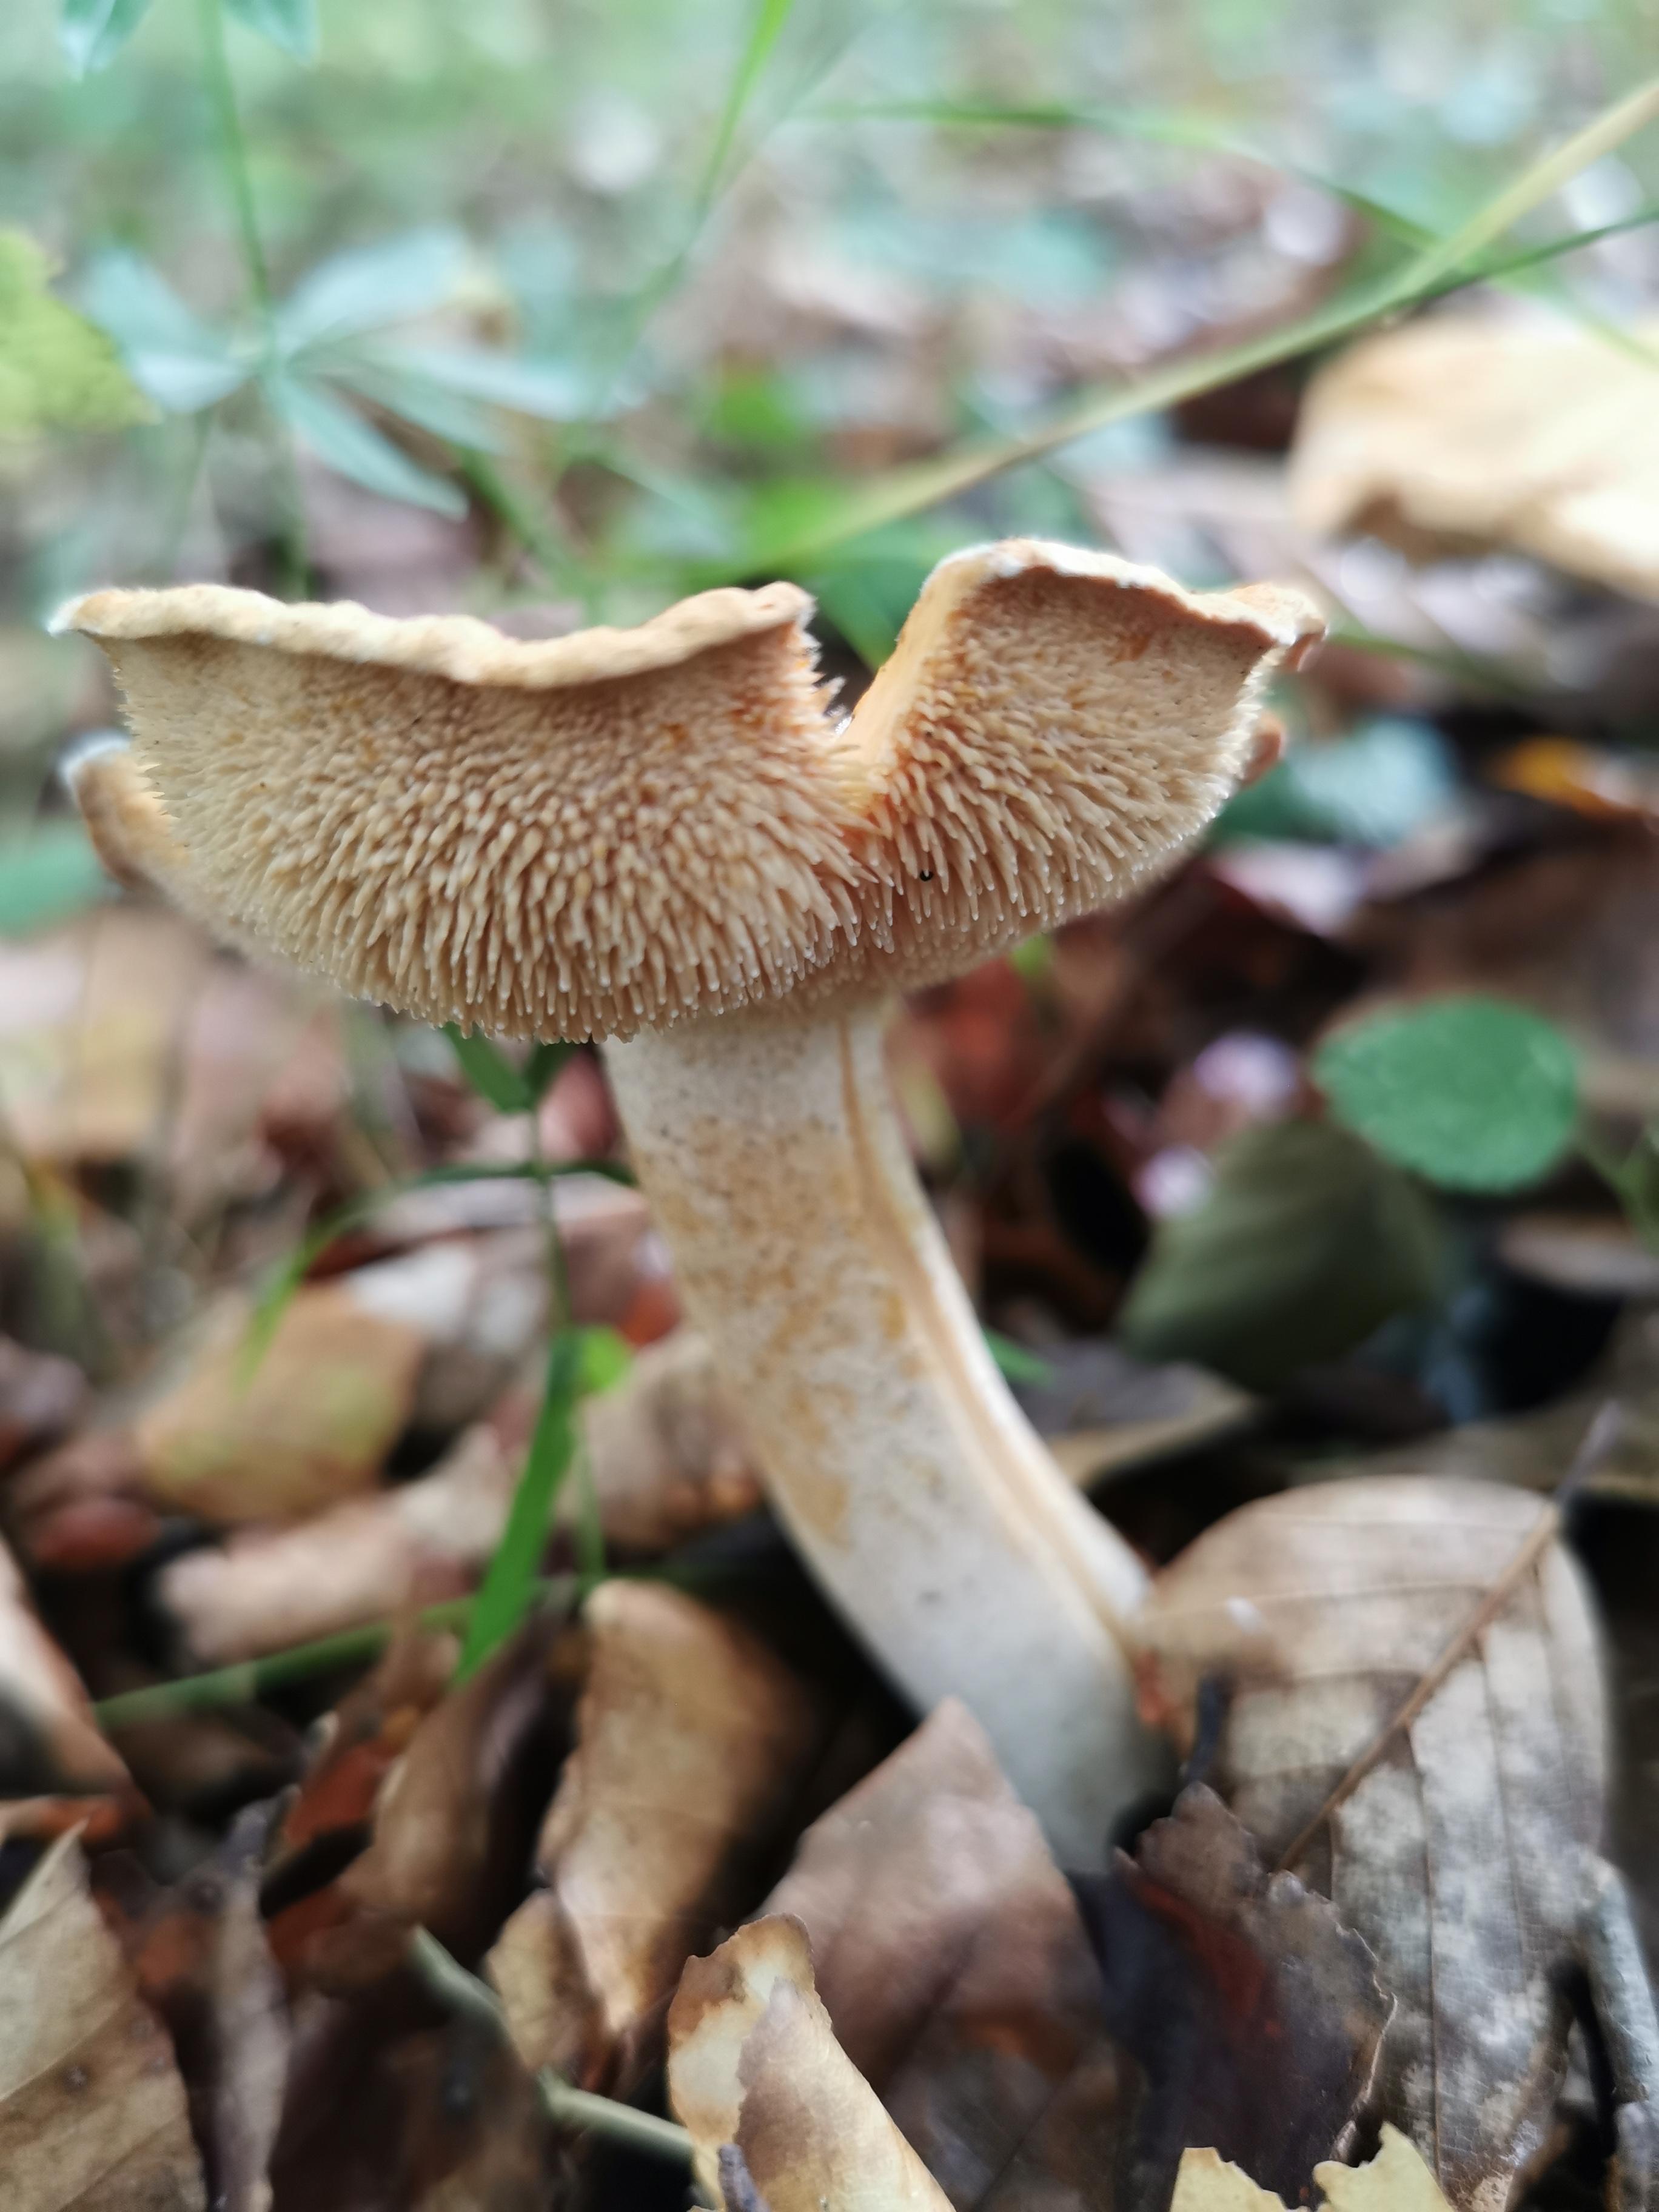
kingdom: Fungi
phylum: Basidiomycota
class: Agaricomycetes
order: Cantharellales
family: Hydnaceae
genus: Hydnum
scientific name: Hydnum
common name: pigsvamp
